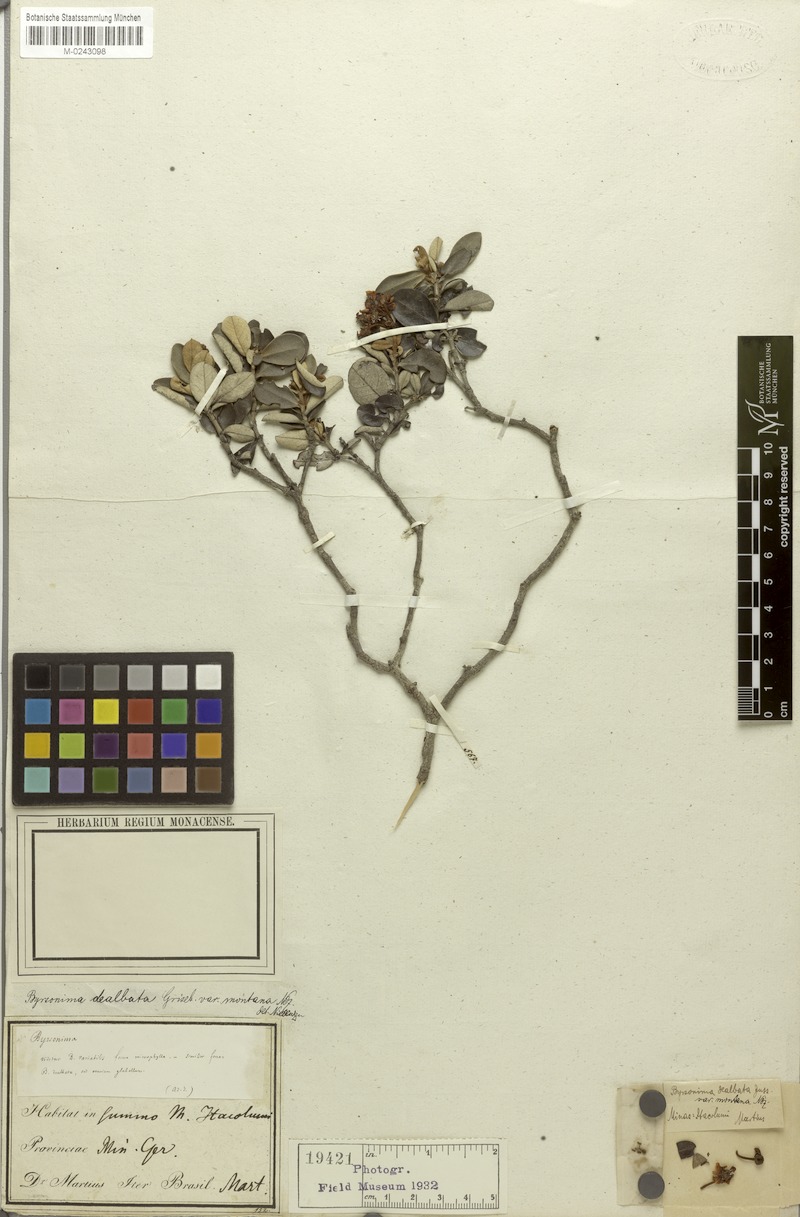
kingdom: Plantae
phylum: Tracheophyta
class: Magnoliopsida
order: Malpighiales
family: Malpighiaceae
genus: Byrsonima
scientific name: Byrsonima dealbata
